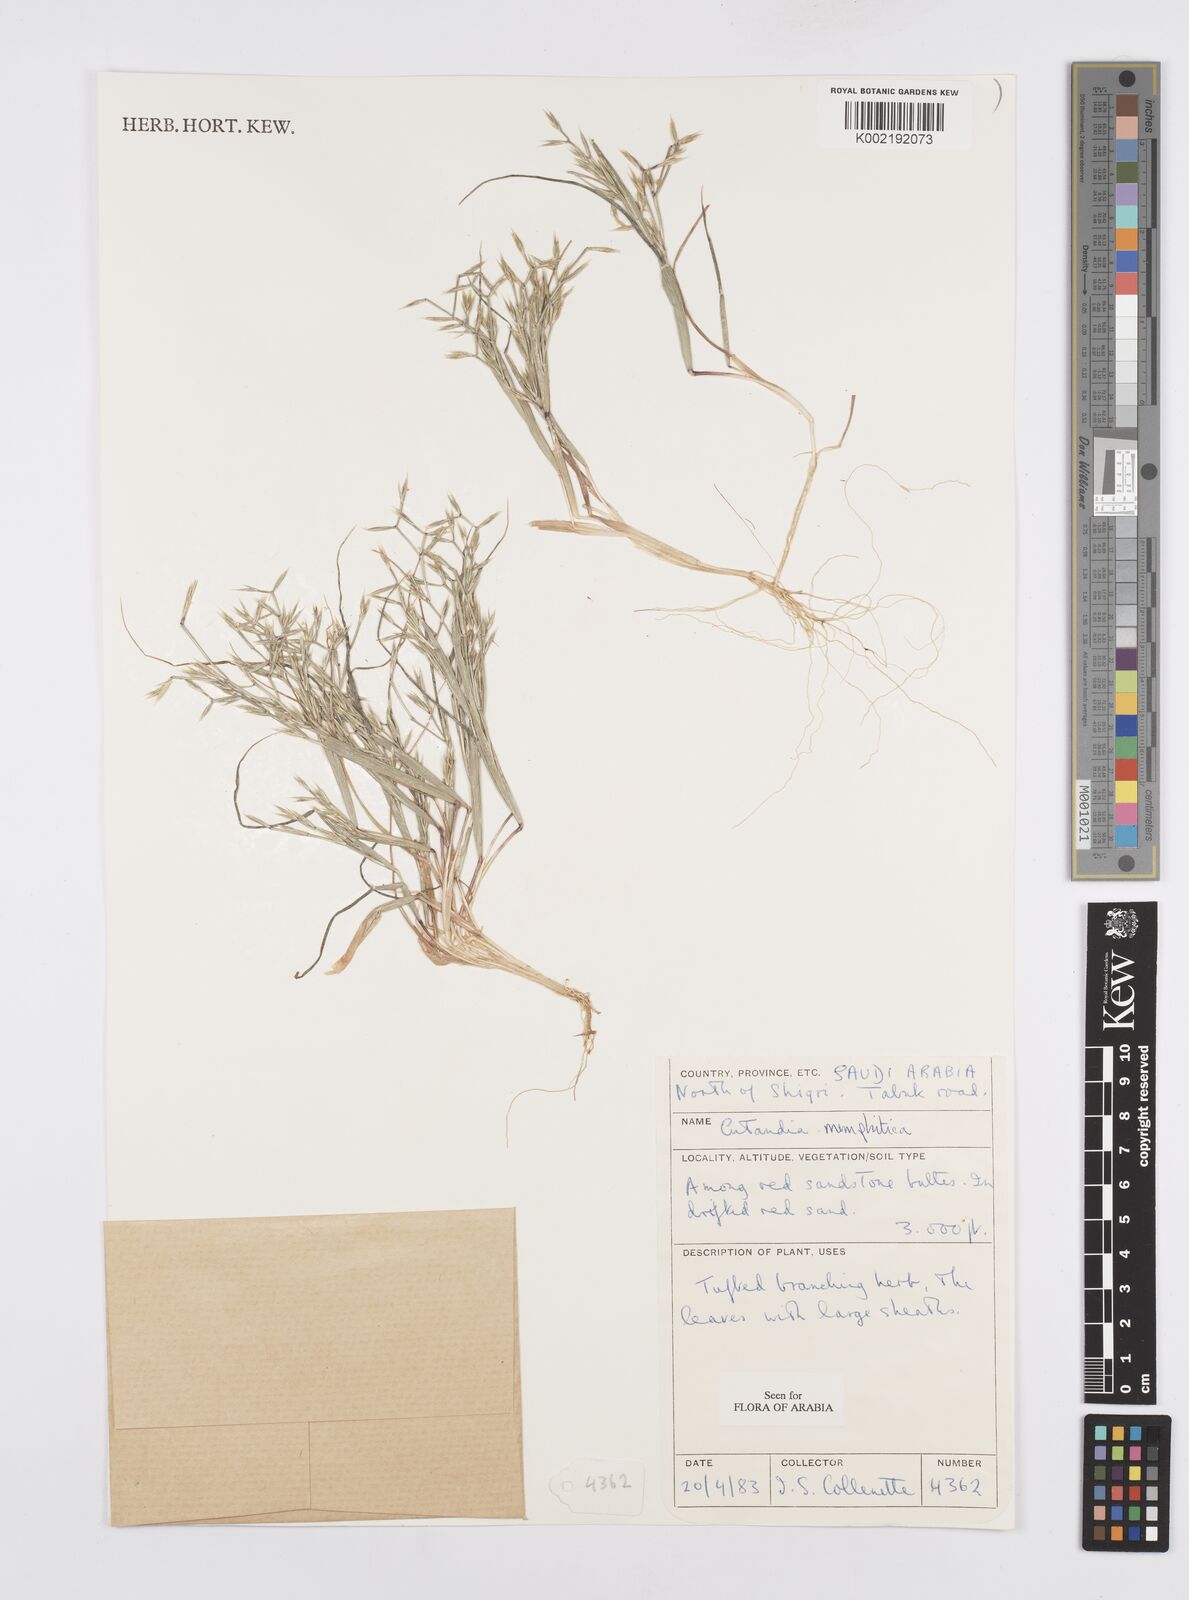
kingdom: Plantae
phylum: Tracheophyta
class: Liliopsida
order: Poales
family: Poaceae
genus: Cutandia
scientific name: Cutandia memphitica
